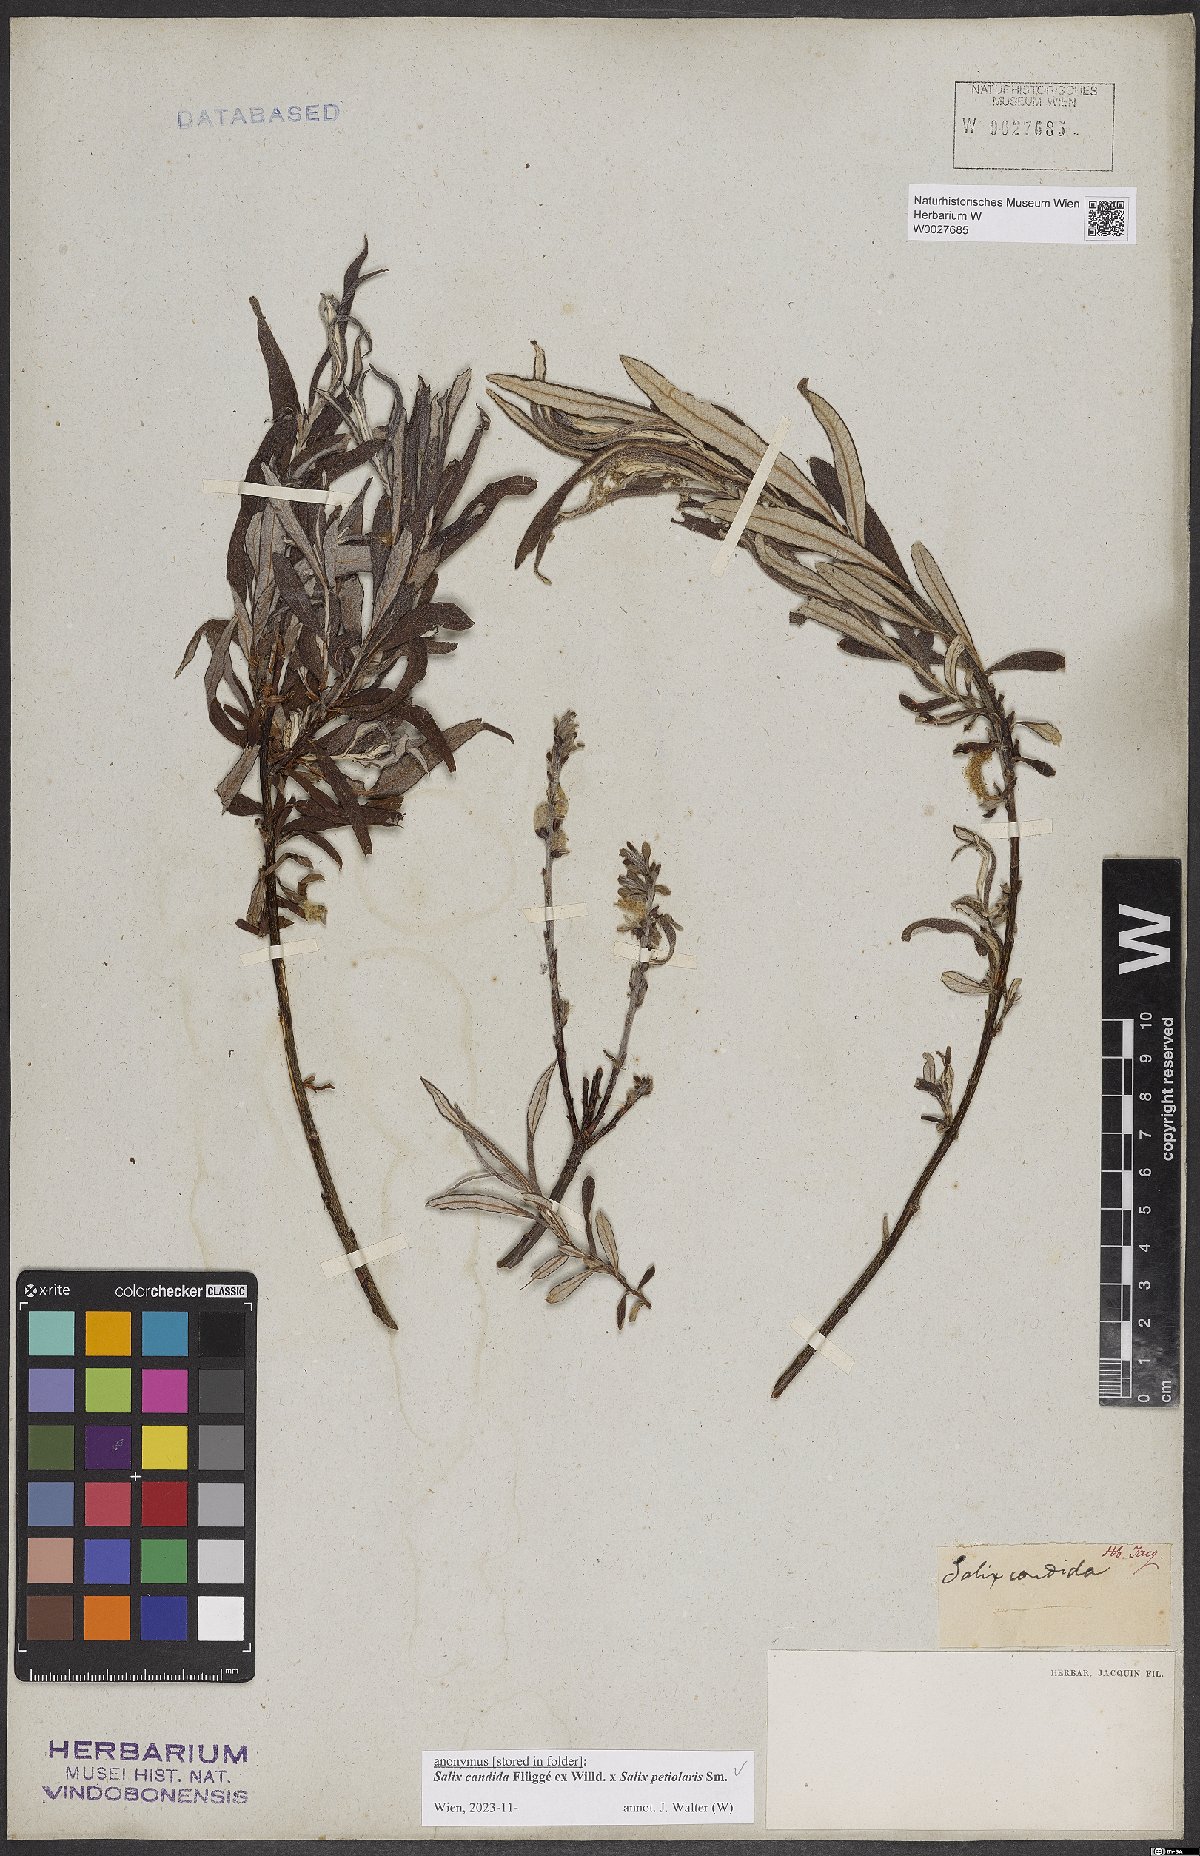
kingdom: Plantae
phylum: Tracheophyta
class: Magnoliopsida
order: Malpighiales
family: Salicaceae
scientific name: Salicaceae
